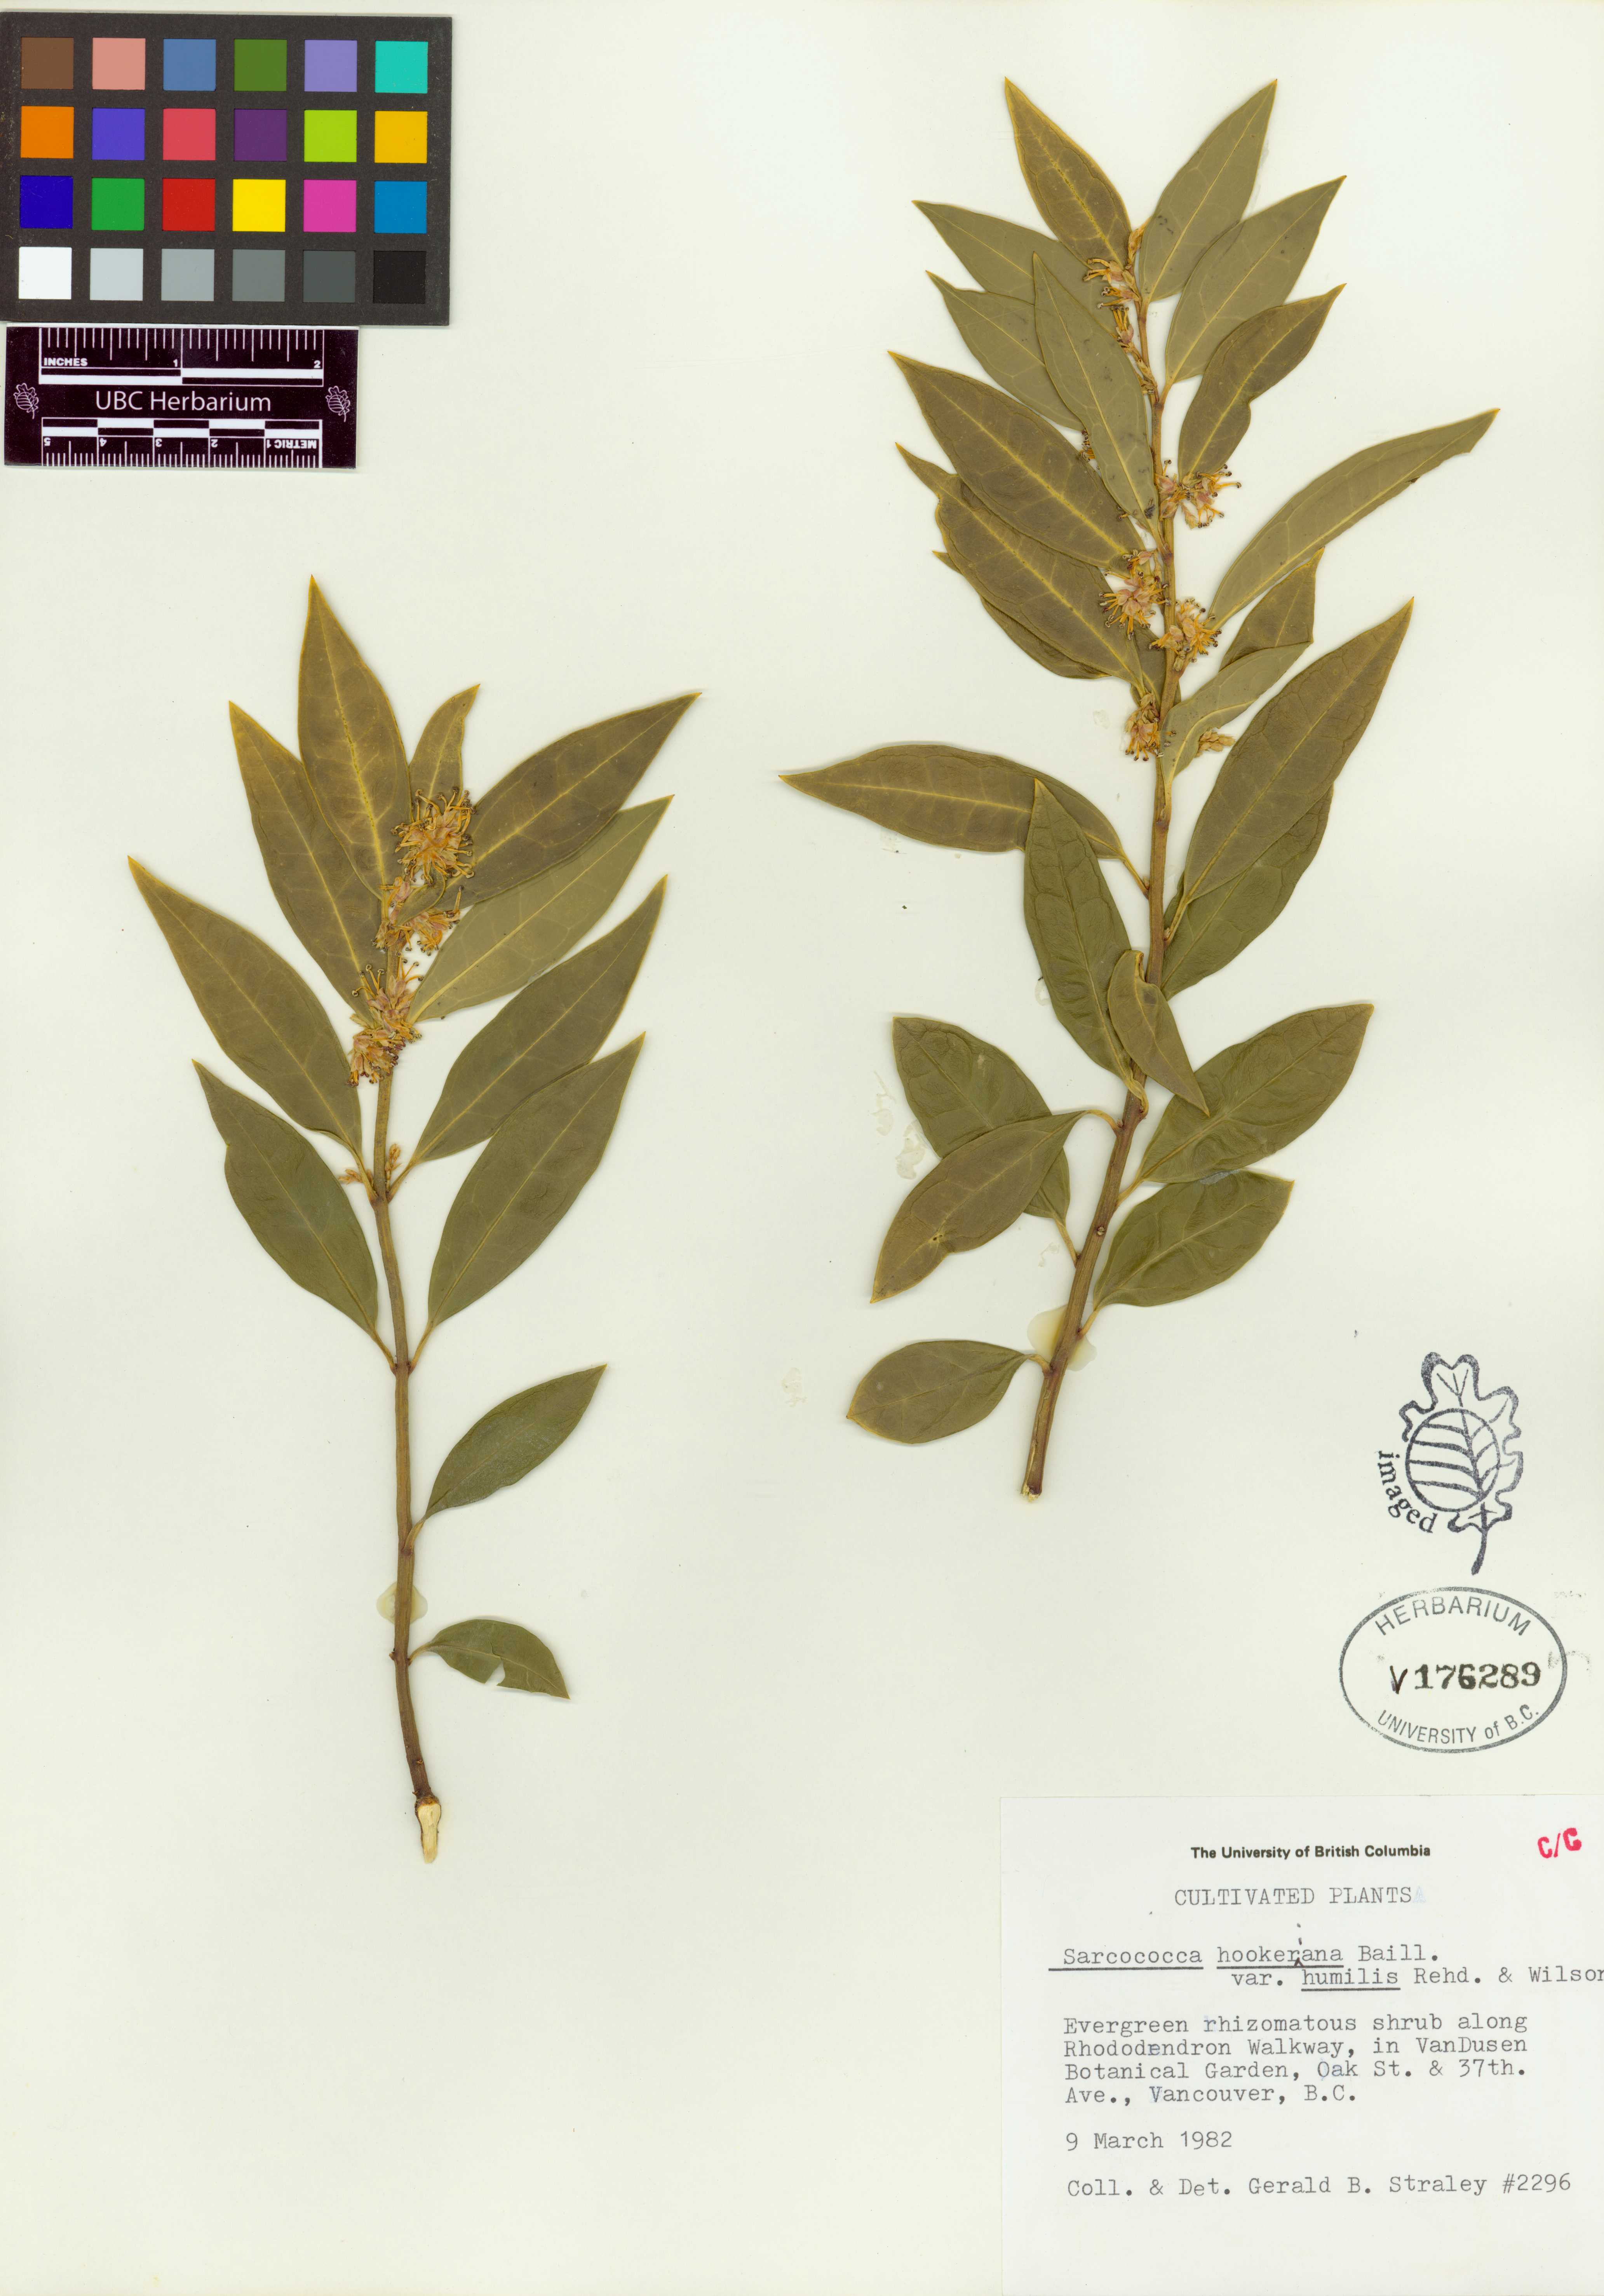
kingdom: Plantae
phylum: Tracheophyta
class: Magnoliopsida
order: Buxales
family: Buxaceae
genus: Sarcococca
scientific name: Sarcococca hookeriana
